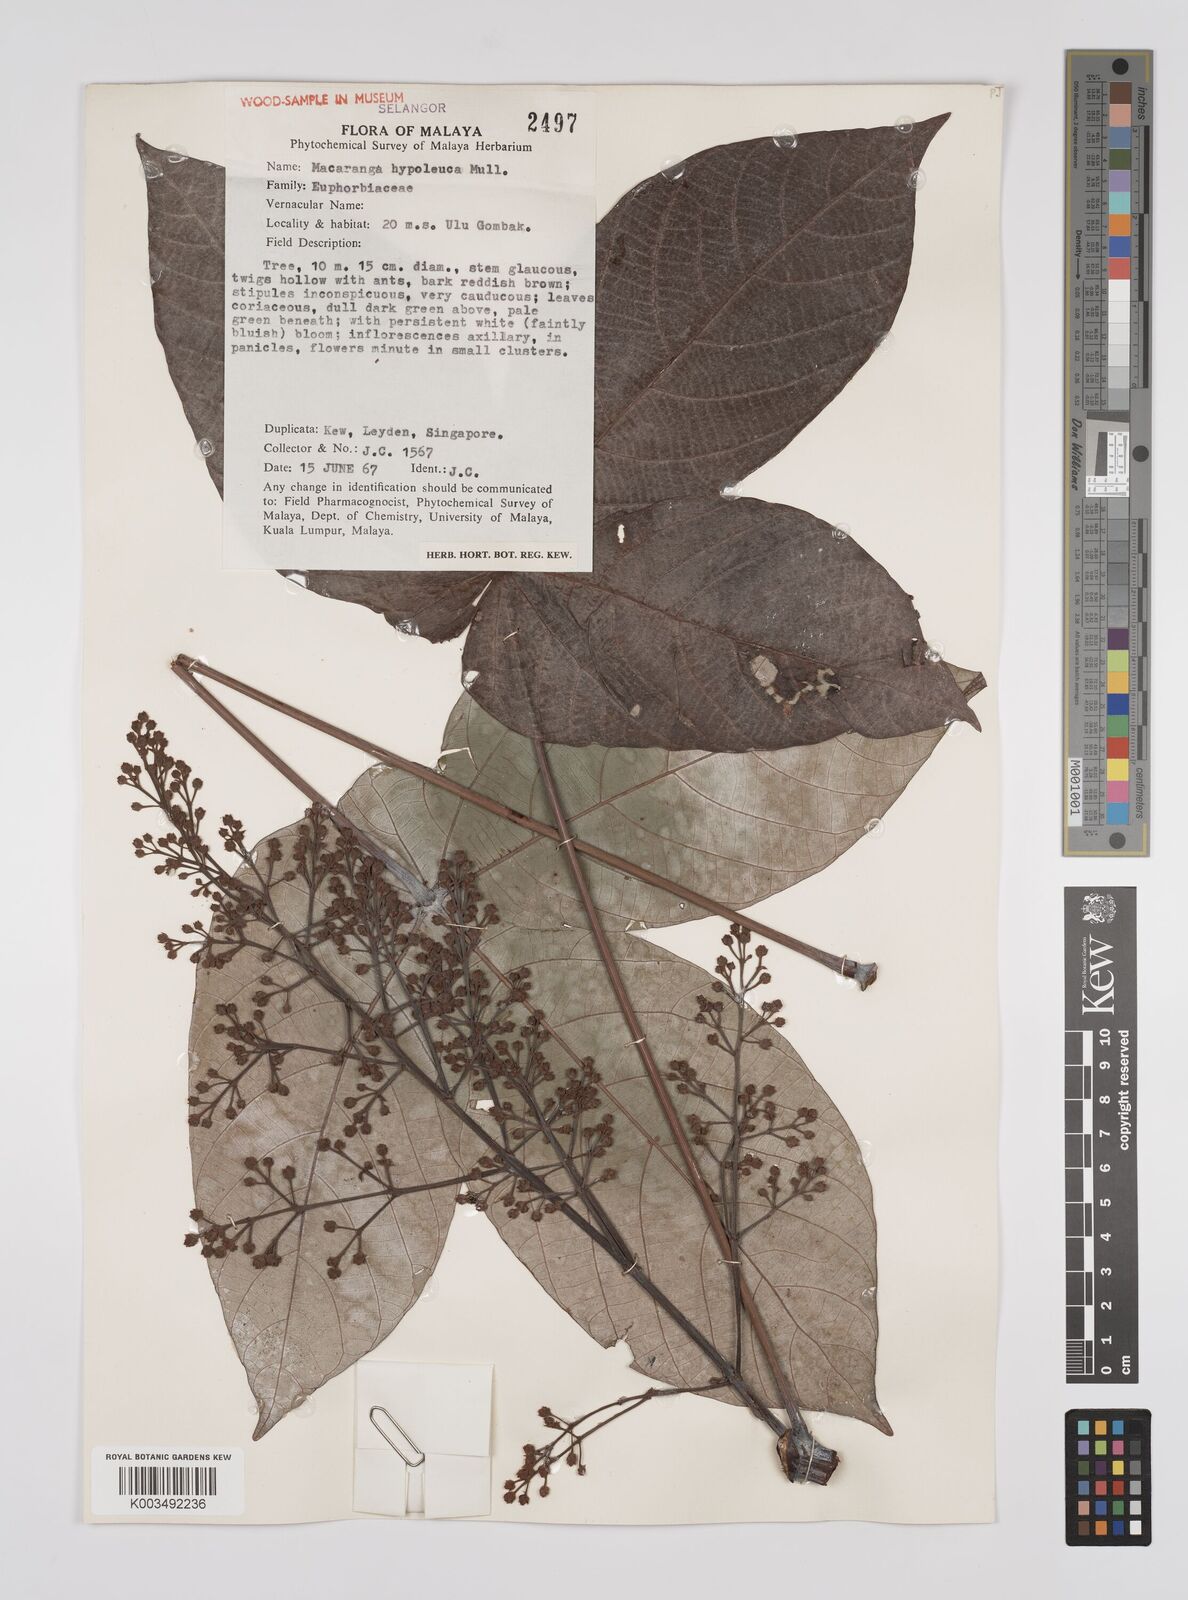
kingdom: Plantae
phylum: Tracheophyta
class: Magnoliopsida
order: Malpighiales
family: Euphorbiaceae
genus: Macaranga
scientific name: Macaranga hypoleuca
